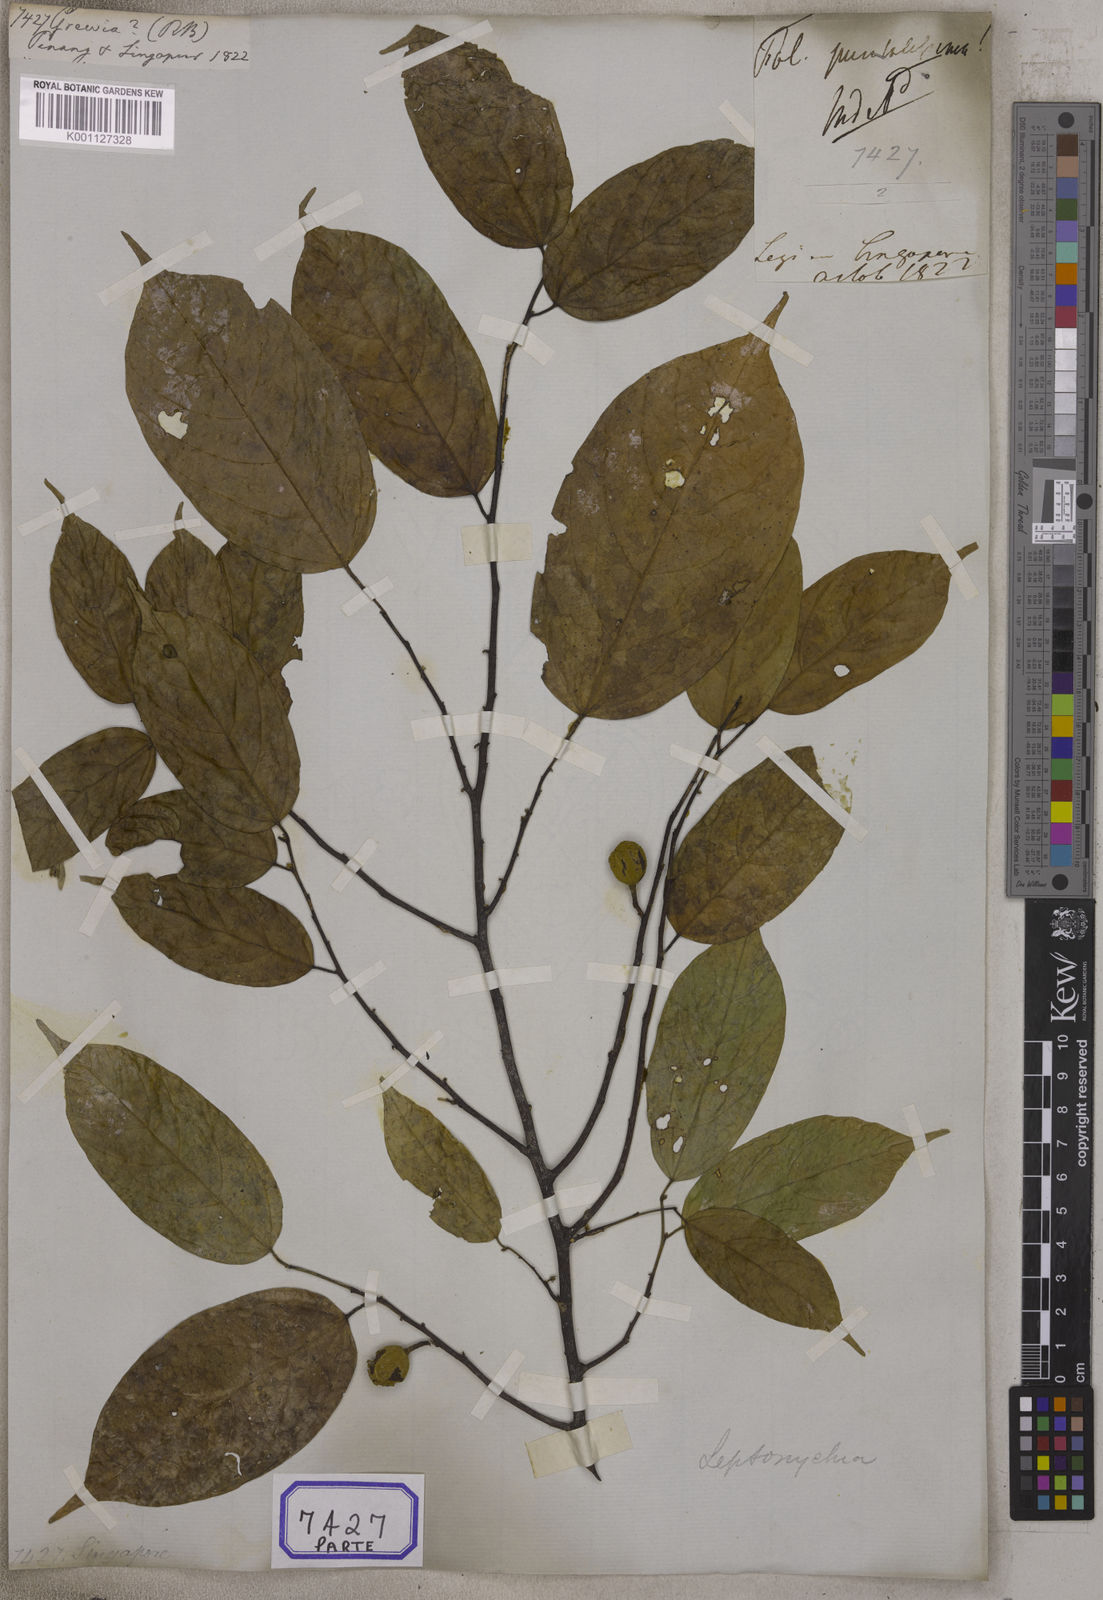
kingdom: Plantae
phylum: Tracheophyta
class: Magnoliopsida
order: Malvales
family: Malvaceae
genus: Grewia
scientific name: Grewia
